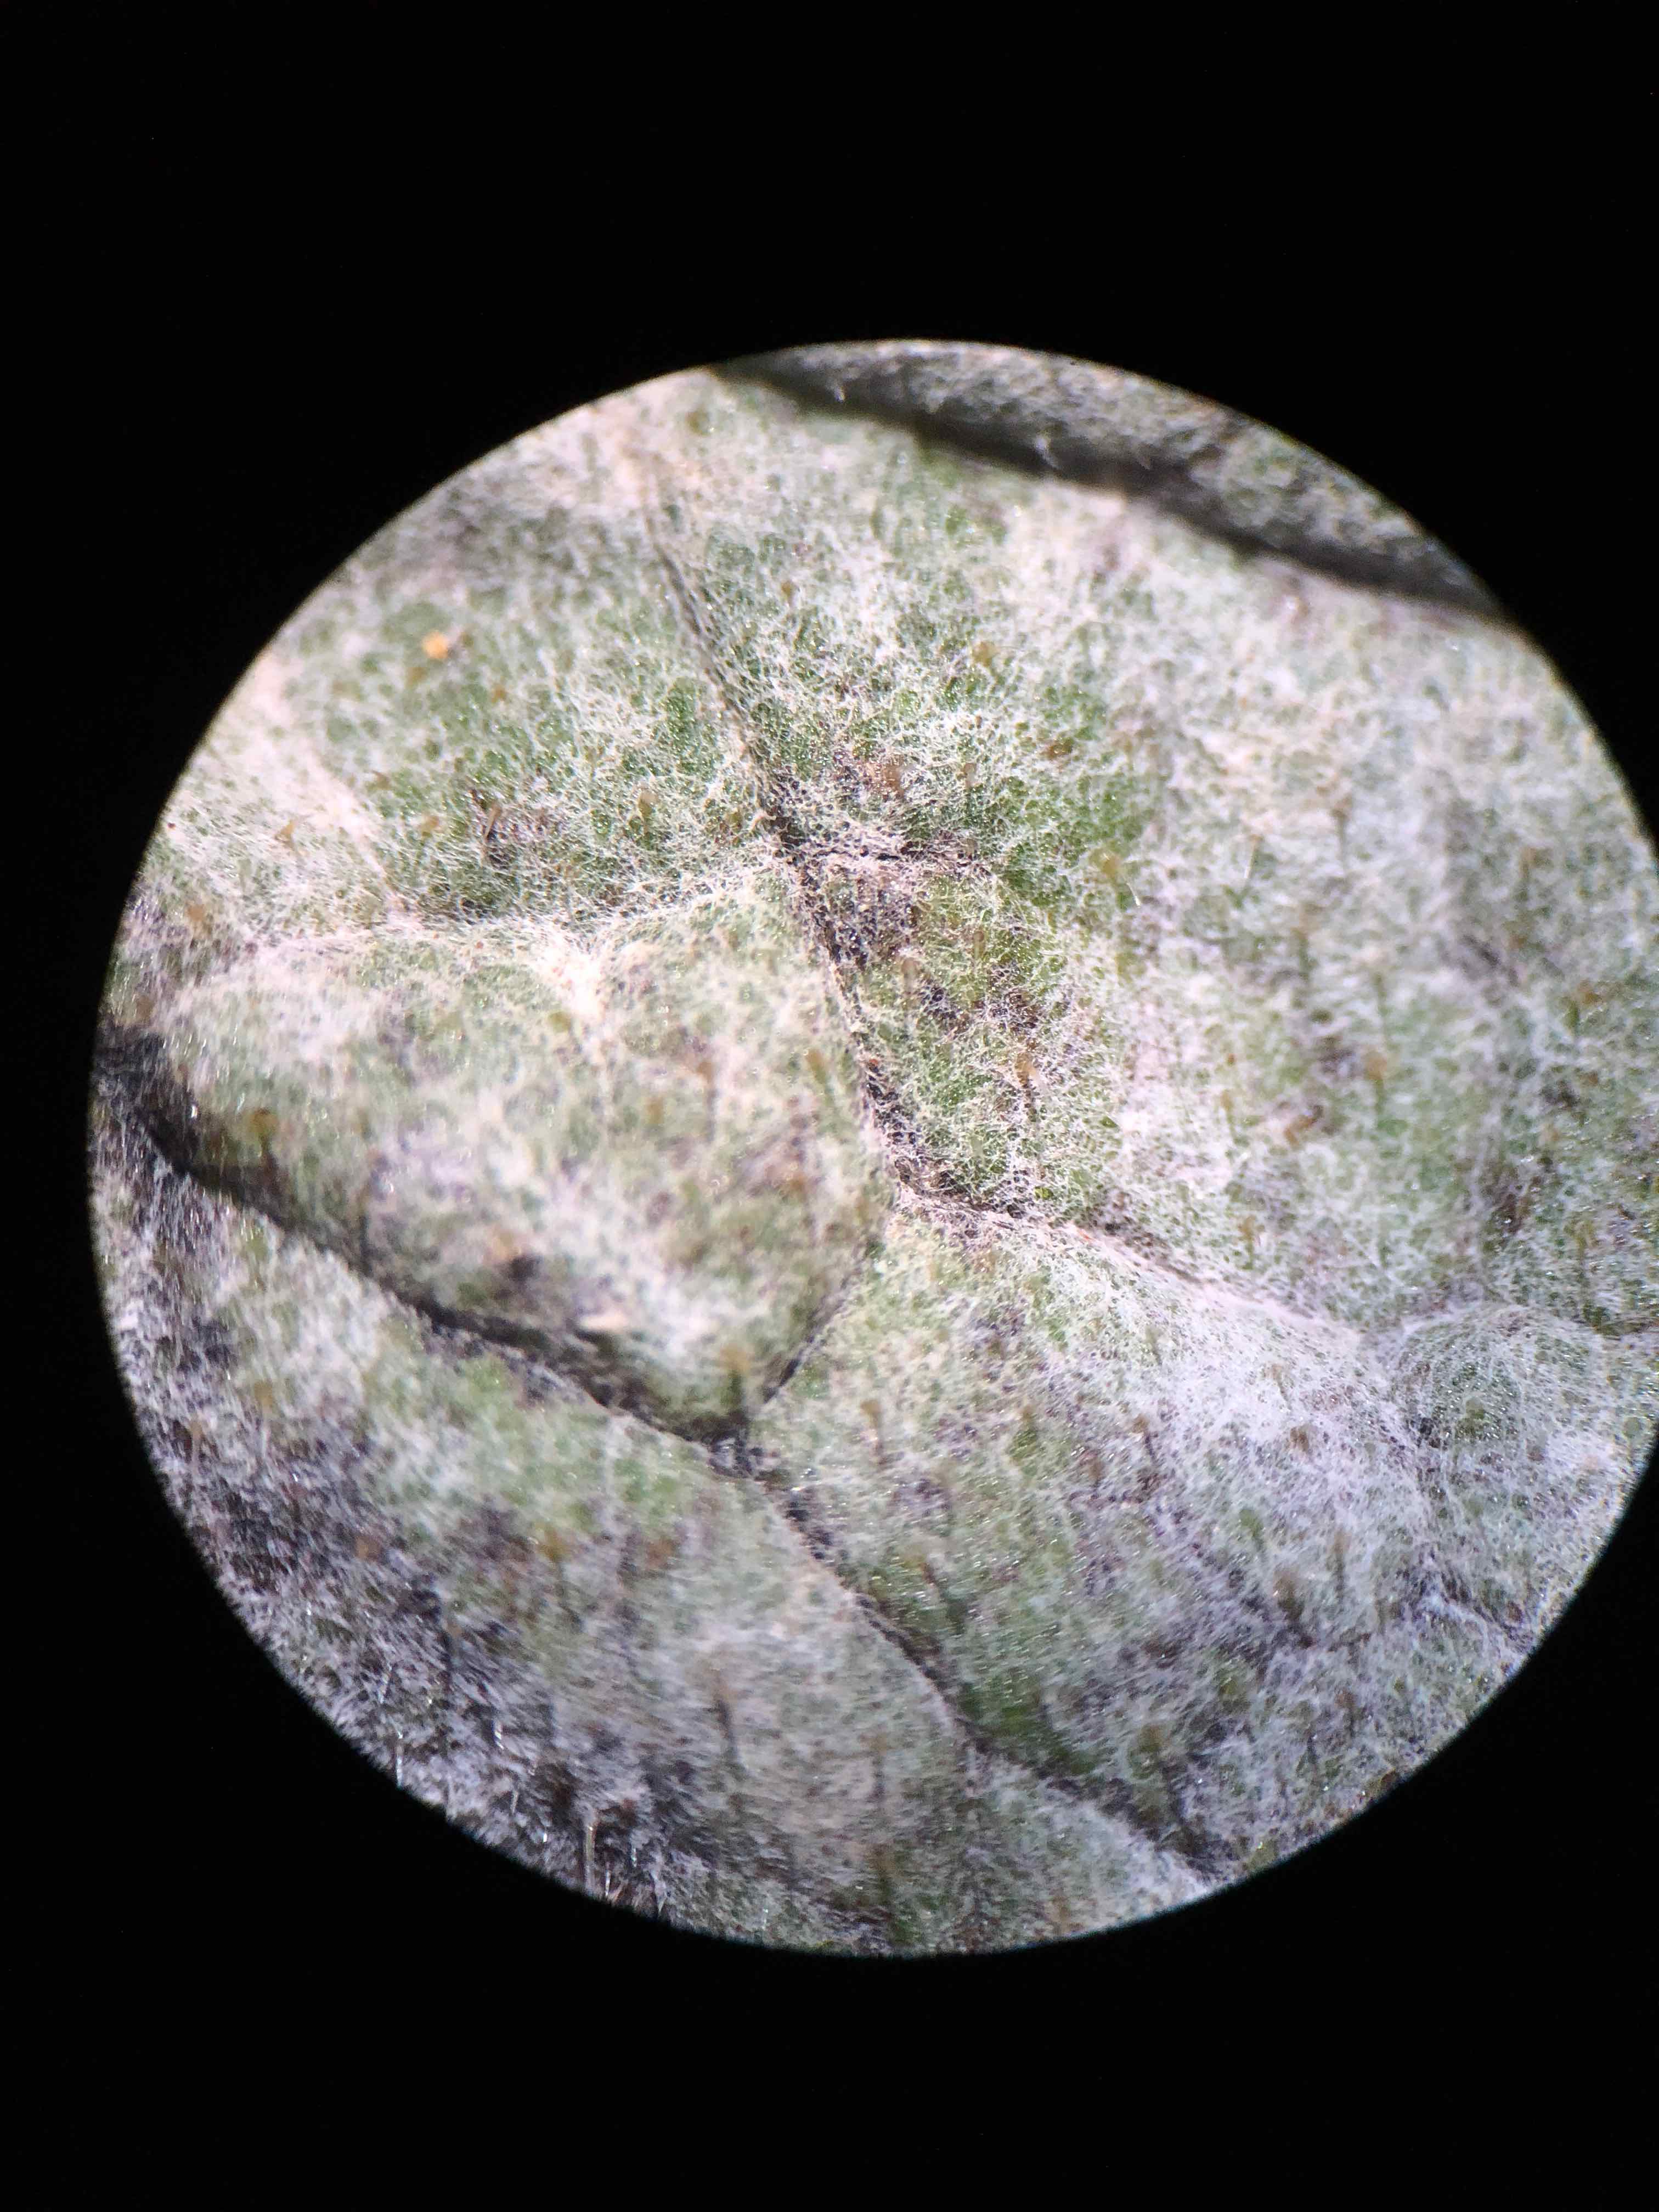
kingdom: Fungi
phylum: Ascomycota
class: Leotiomycetes
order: Helotiales
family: Erysiphaceae
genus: Golovinomyces
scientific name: Golovinomyces asperifoliorum
